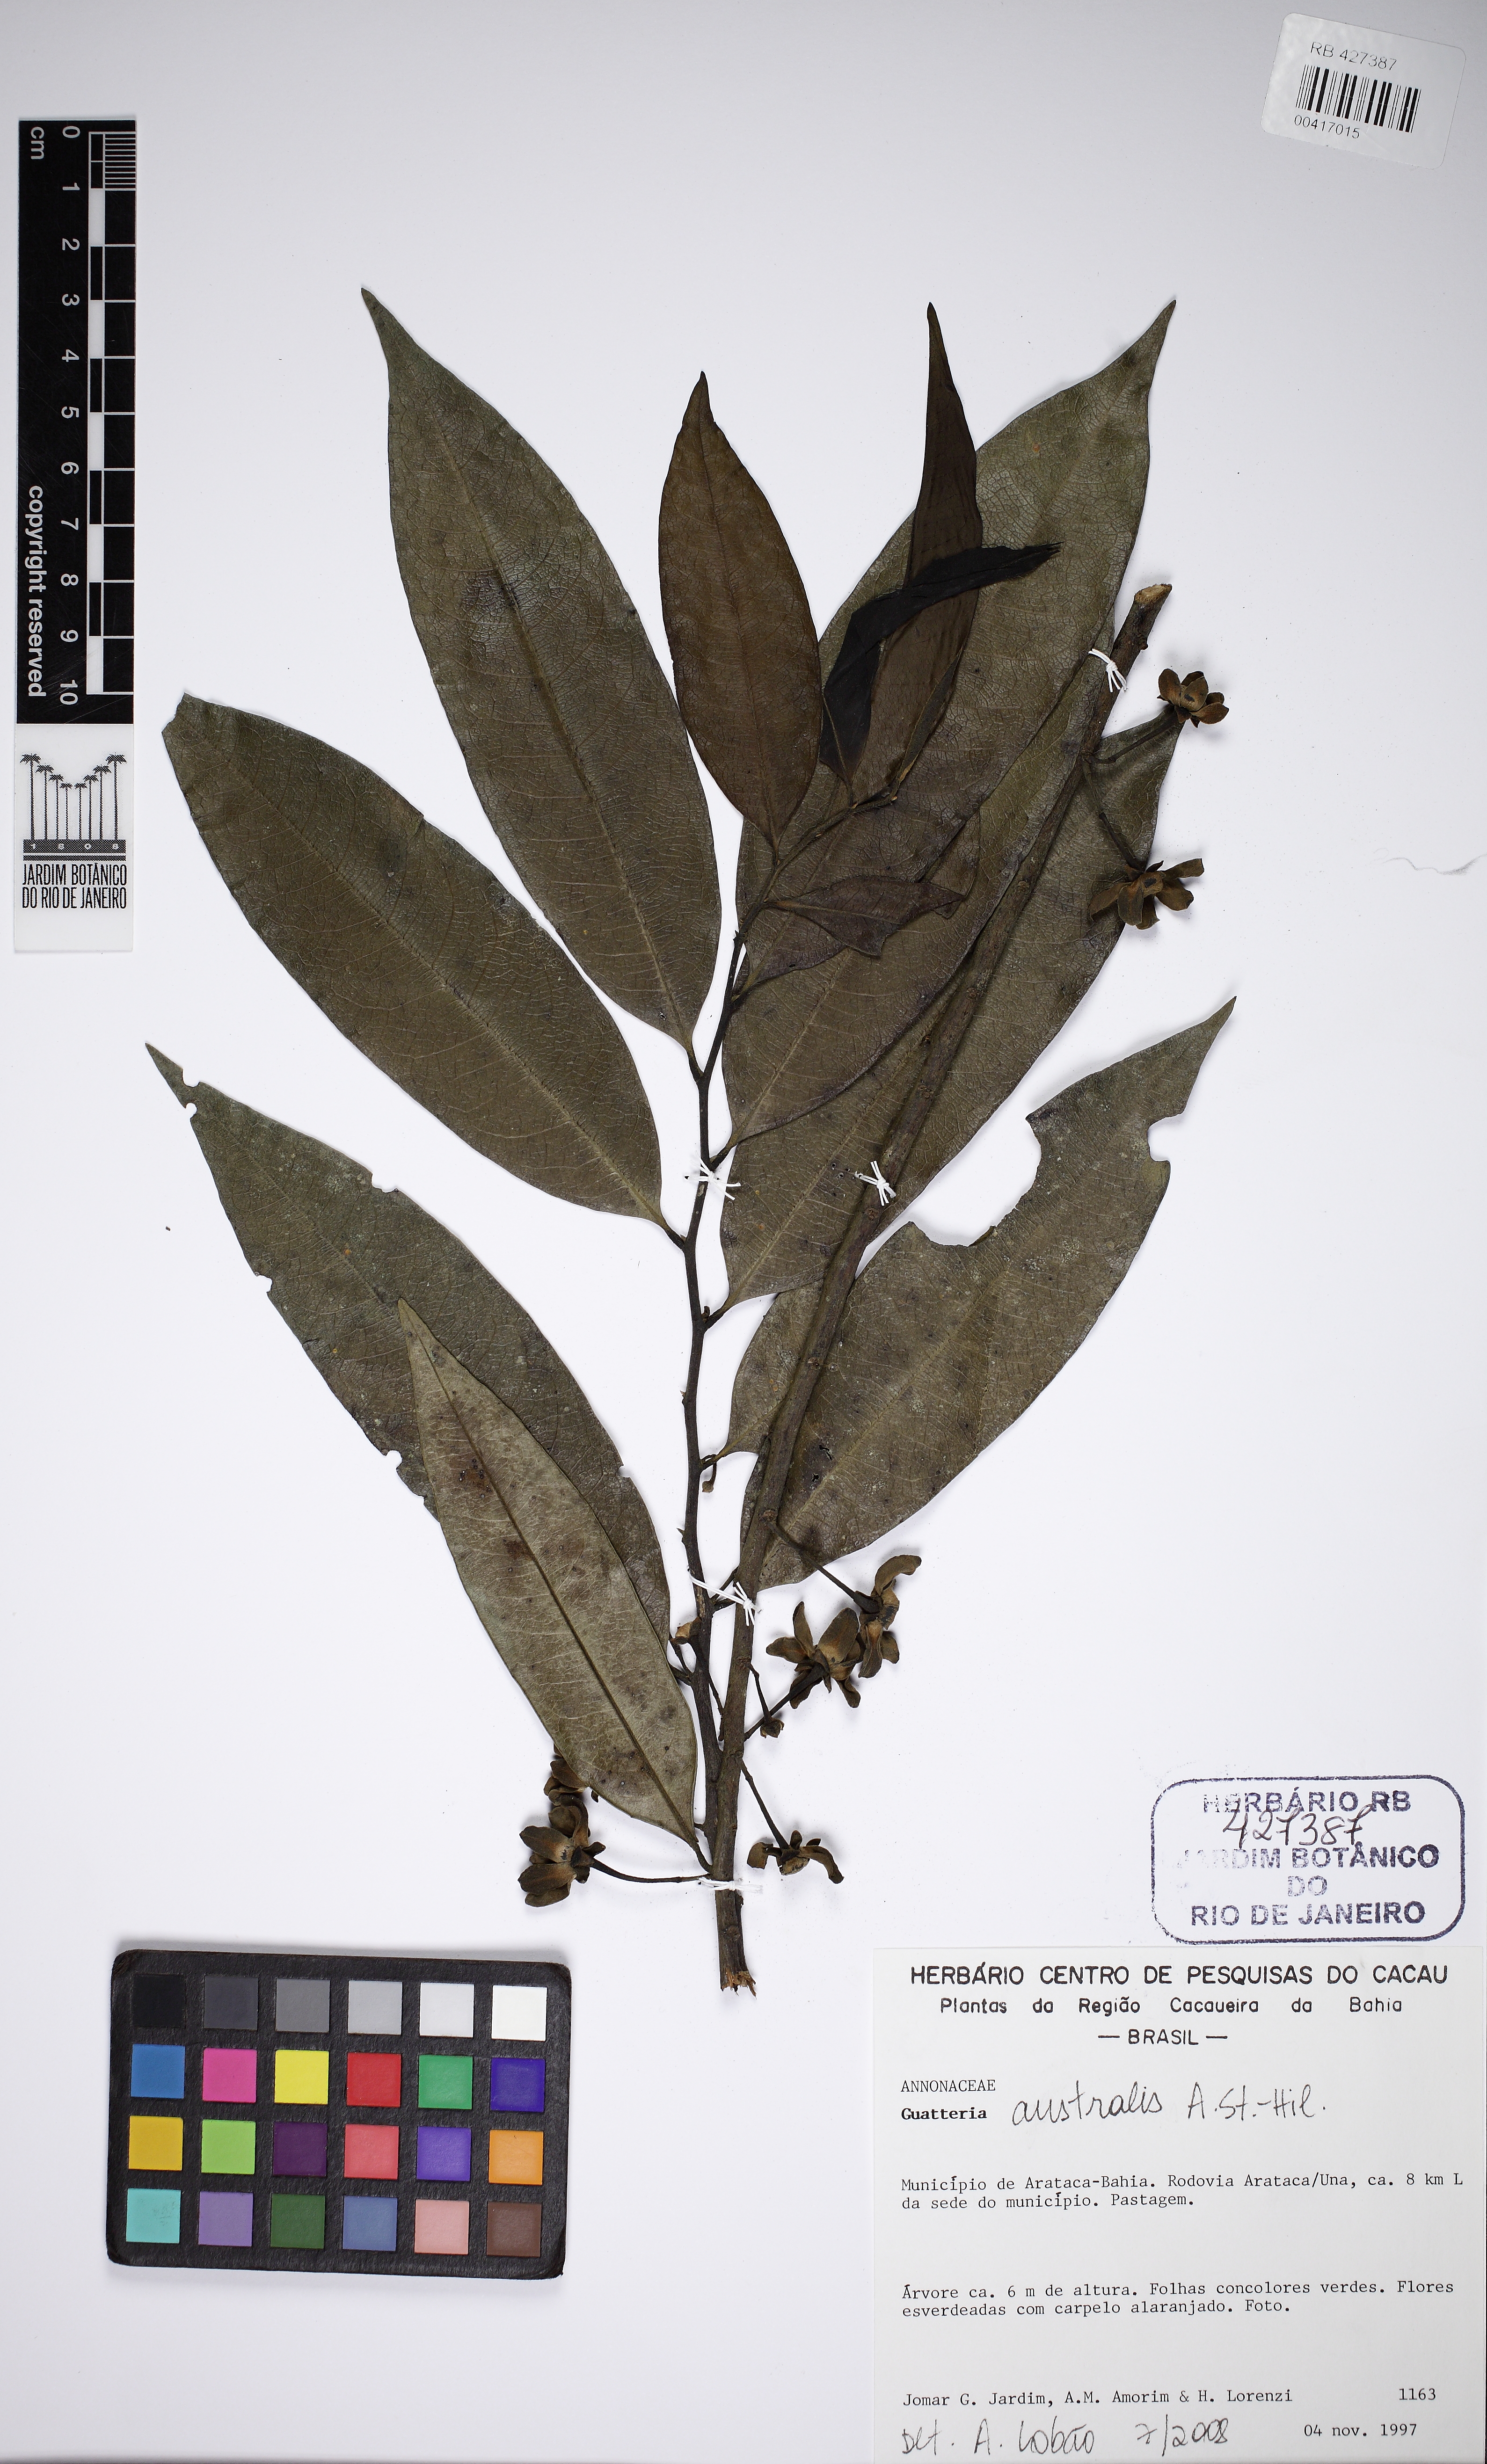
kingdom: Plantae
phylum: Tracheophyta
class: Magnoliopsida
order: Magnoliales
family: Annonaceae
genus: Guatteria
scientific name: Guatteria australis
